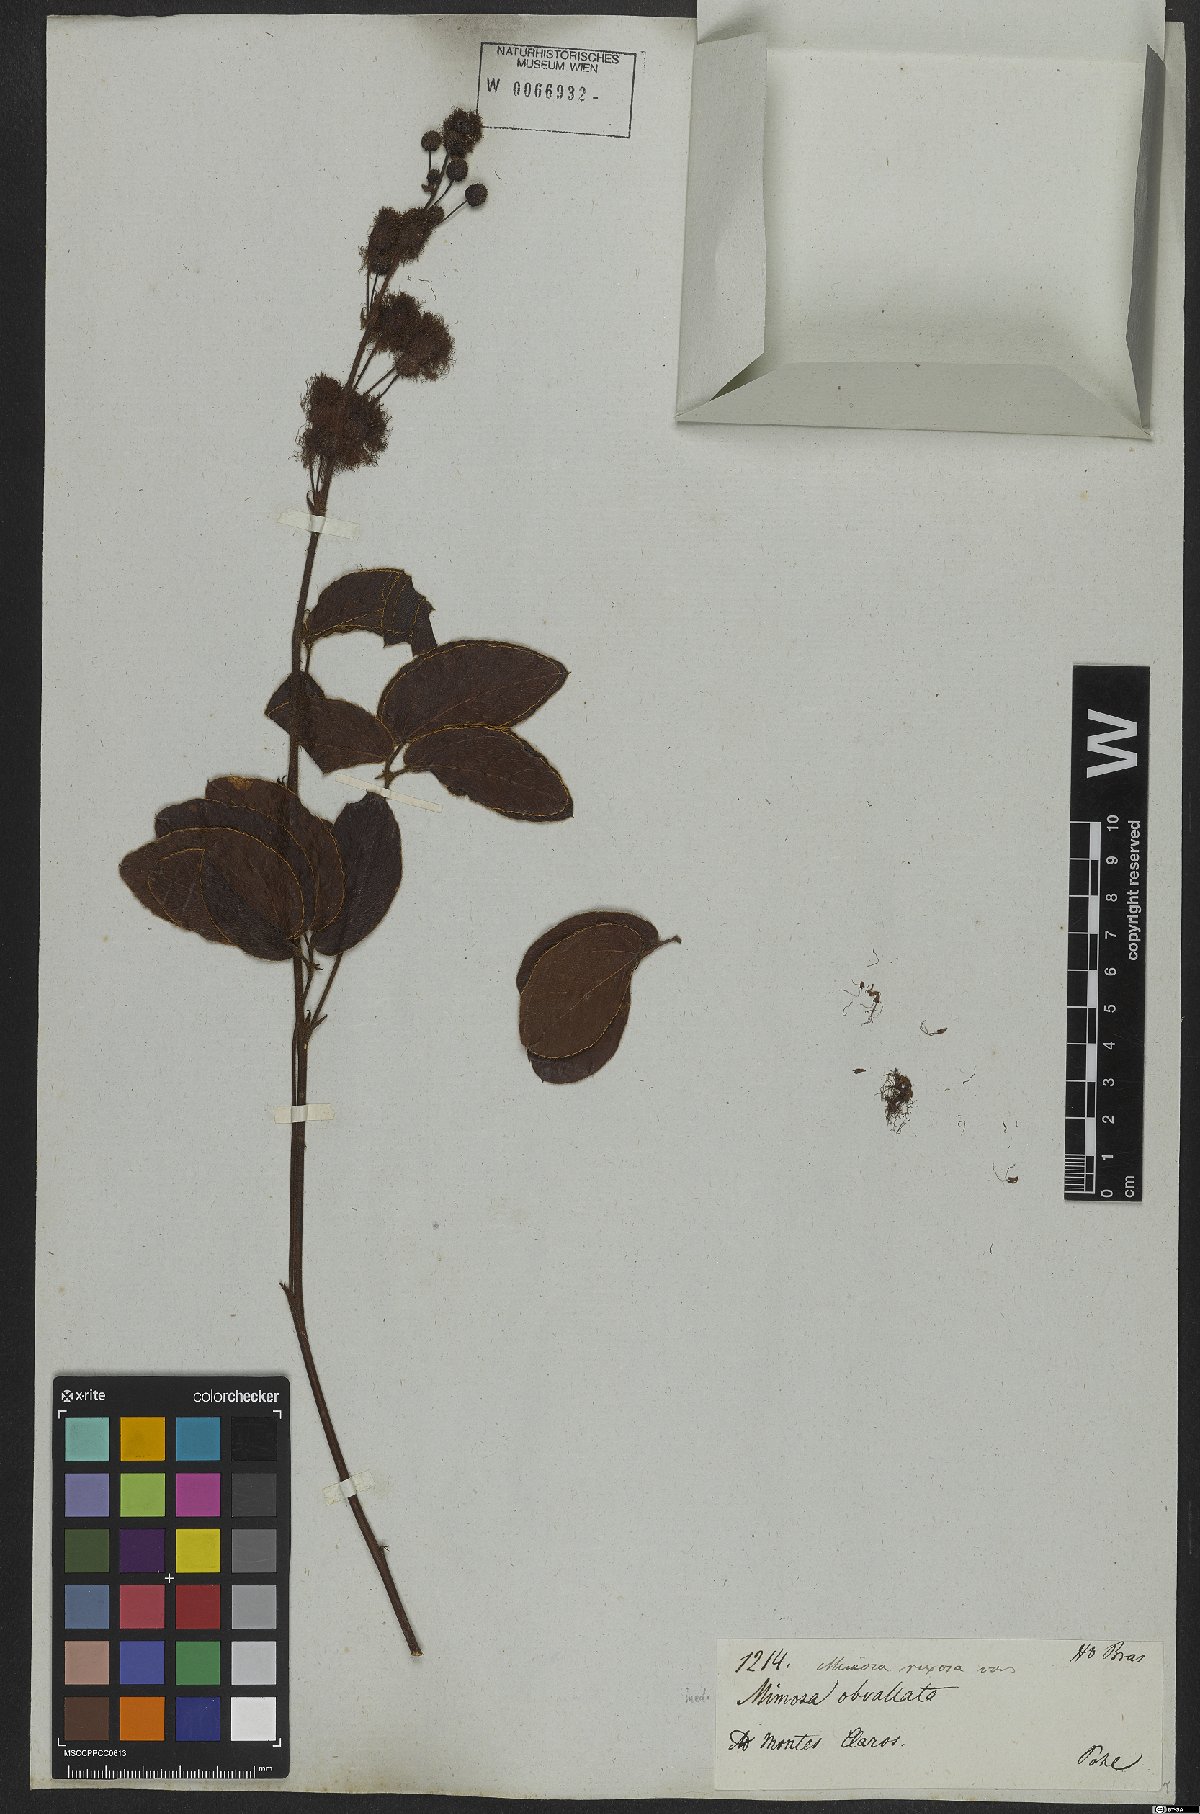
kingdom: Plantae
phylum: Tracheophyta
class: Magnoliopsida
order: Fabales
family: Fabaceae
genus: Mimosa
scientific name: Mimosa debilis
